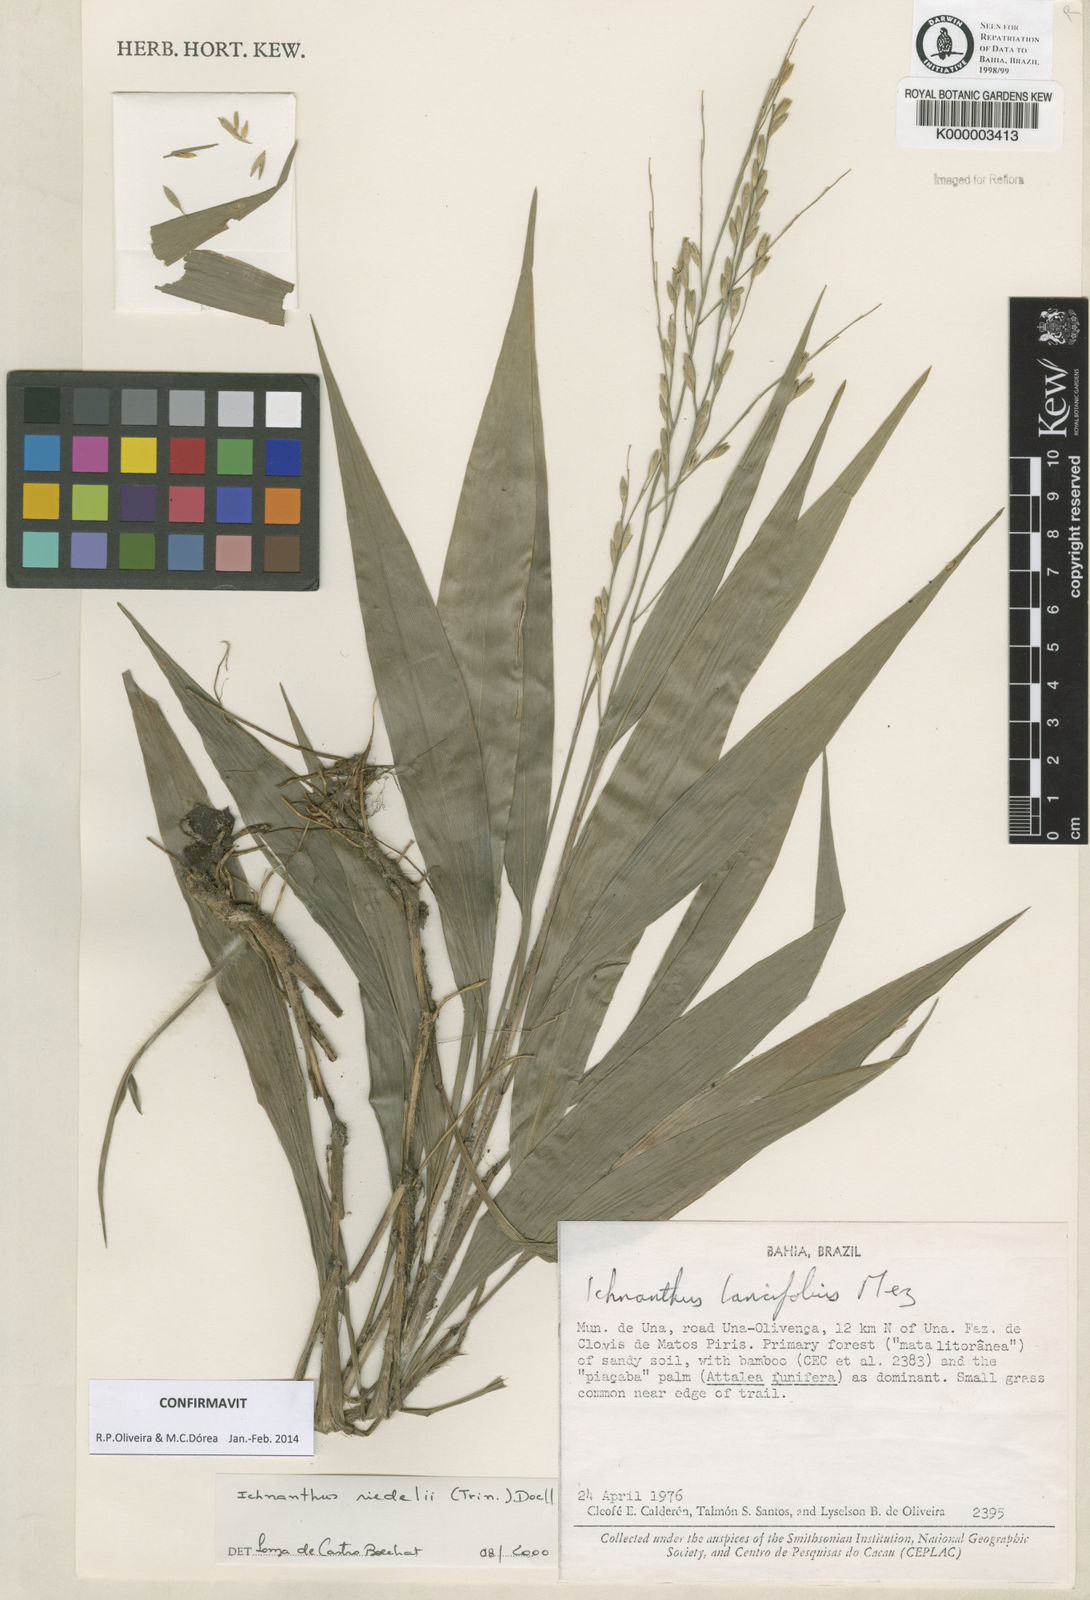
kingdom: Plantae
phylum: Tracheophyta
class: Liliopsida
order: Poales
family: Poaceae
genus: Ichnanthus
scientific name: Ichnanthus
